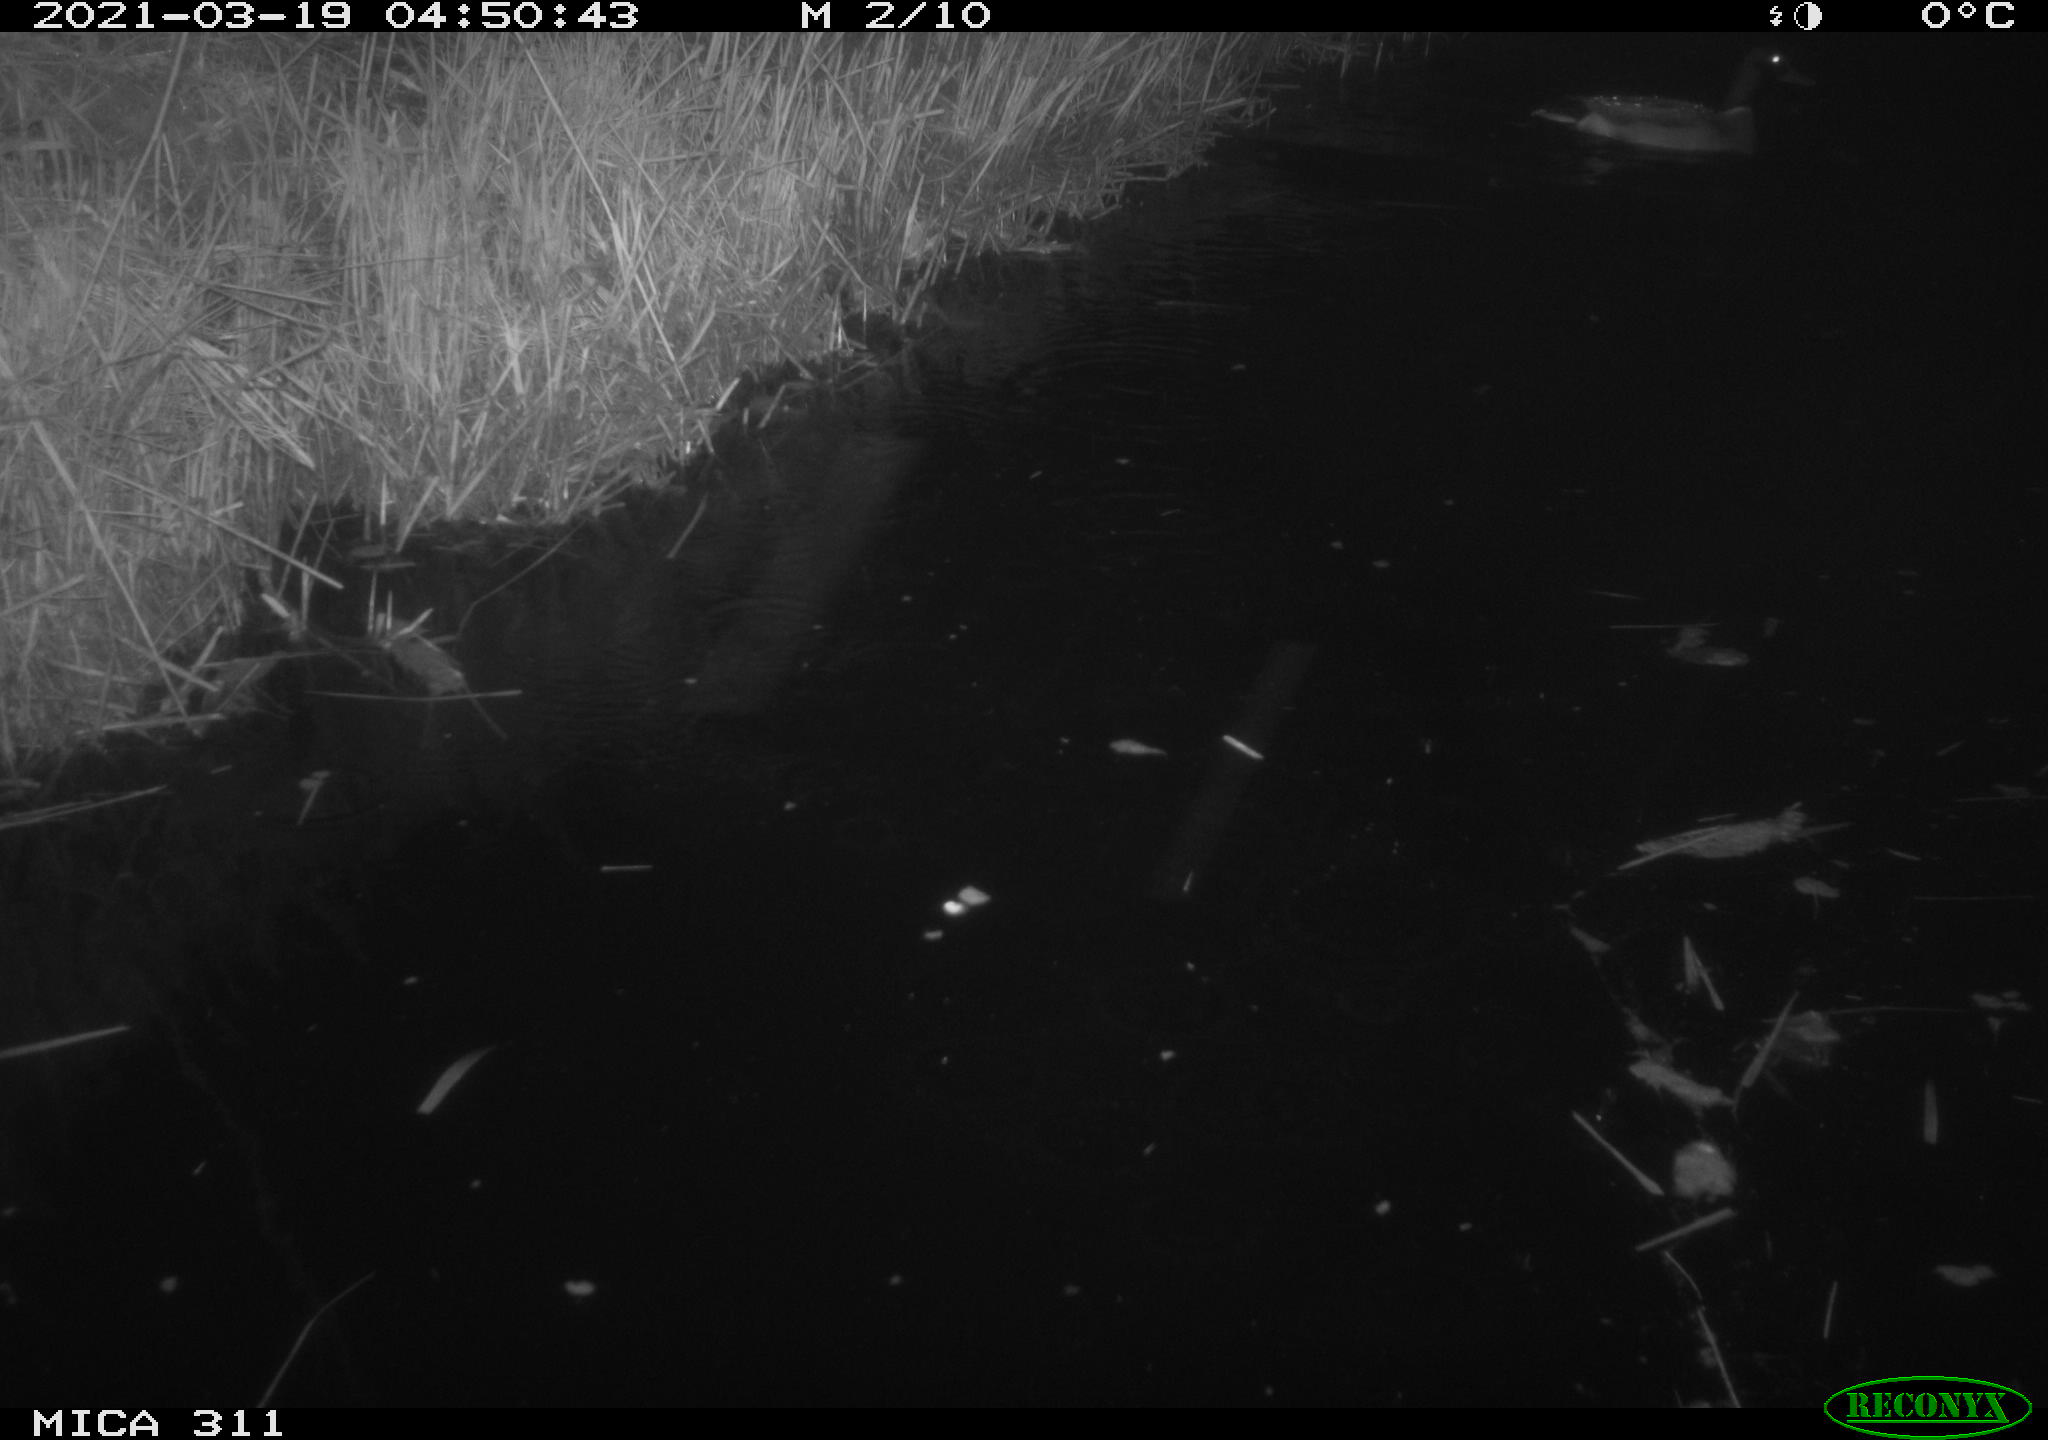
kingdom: Animalia
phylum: Chordata
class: Aves
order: Anseriformes
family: Anatidae
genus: Anas
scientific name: Anas platyrhynchos
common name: Mallard
